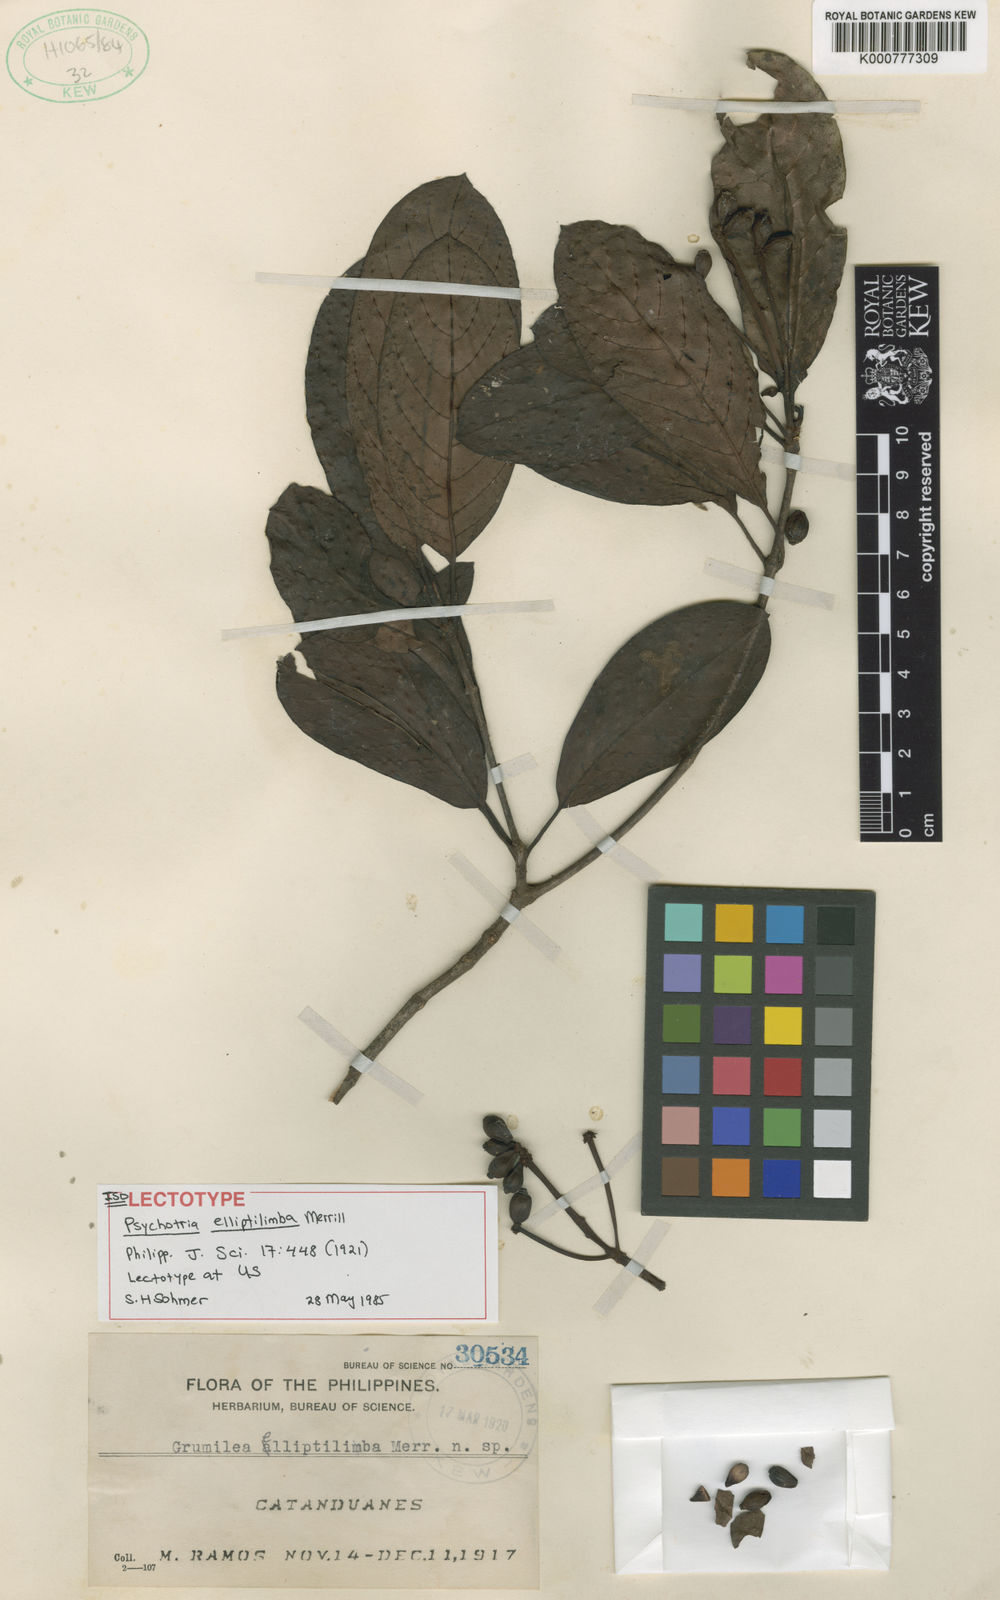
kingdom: Plantae
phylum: Tracheophyta
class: Magnoliopsida
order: Gentianales
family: Rubiaceae
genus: Psychotria
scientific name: Psychotria elliptilimba
